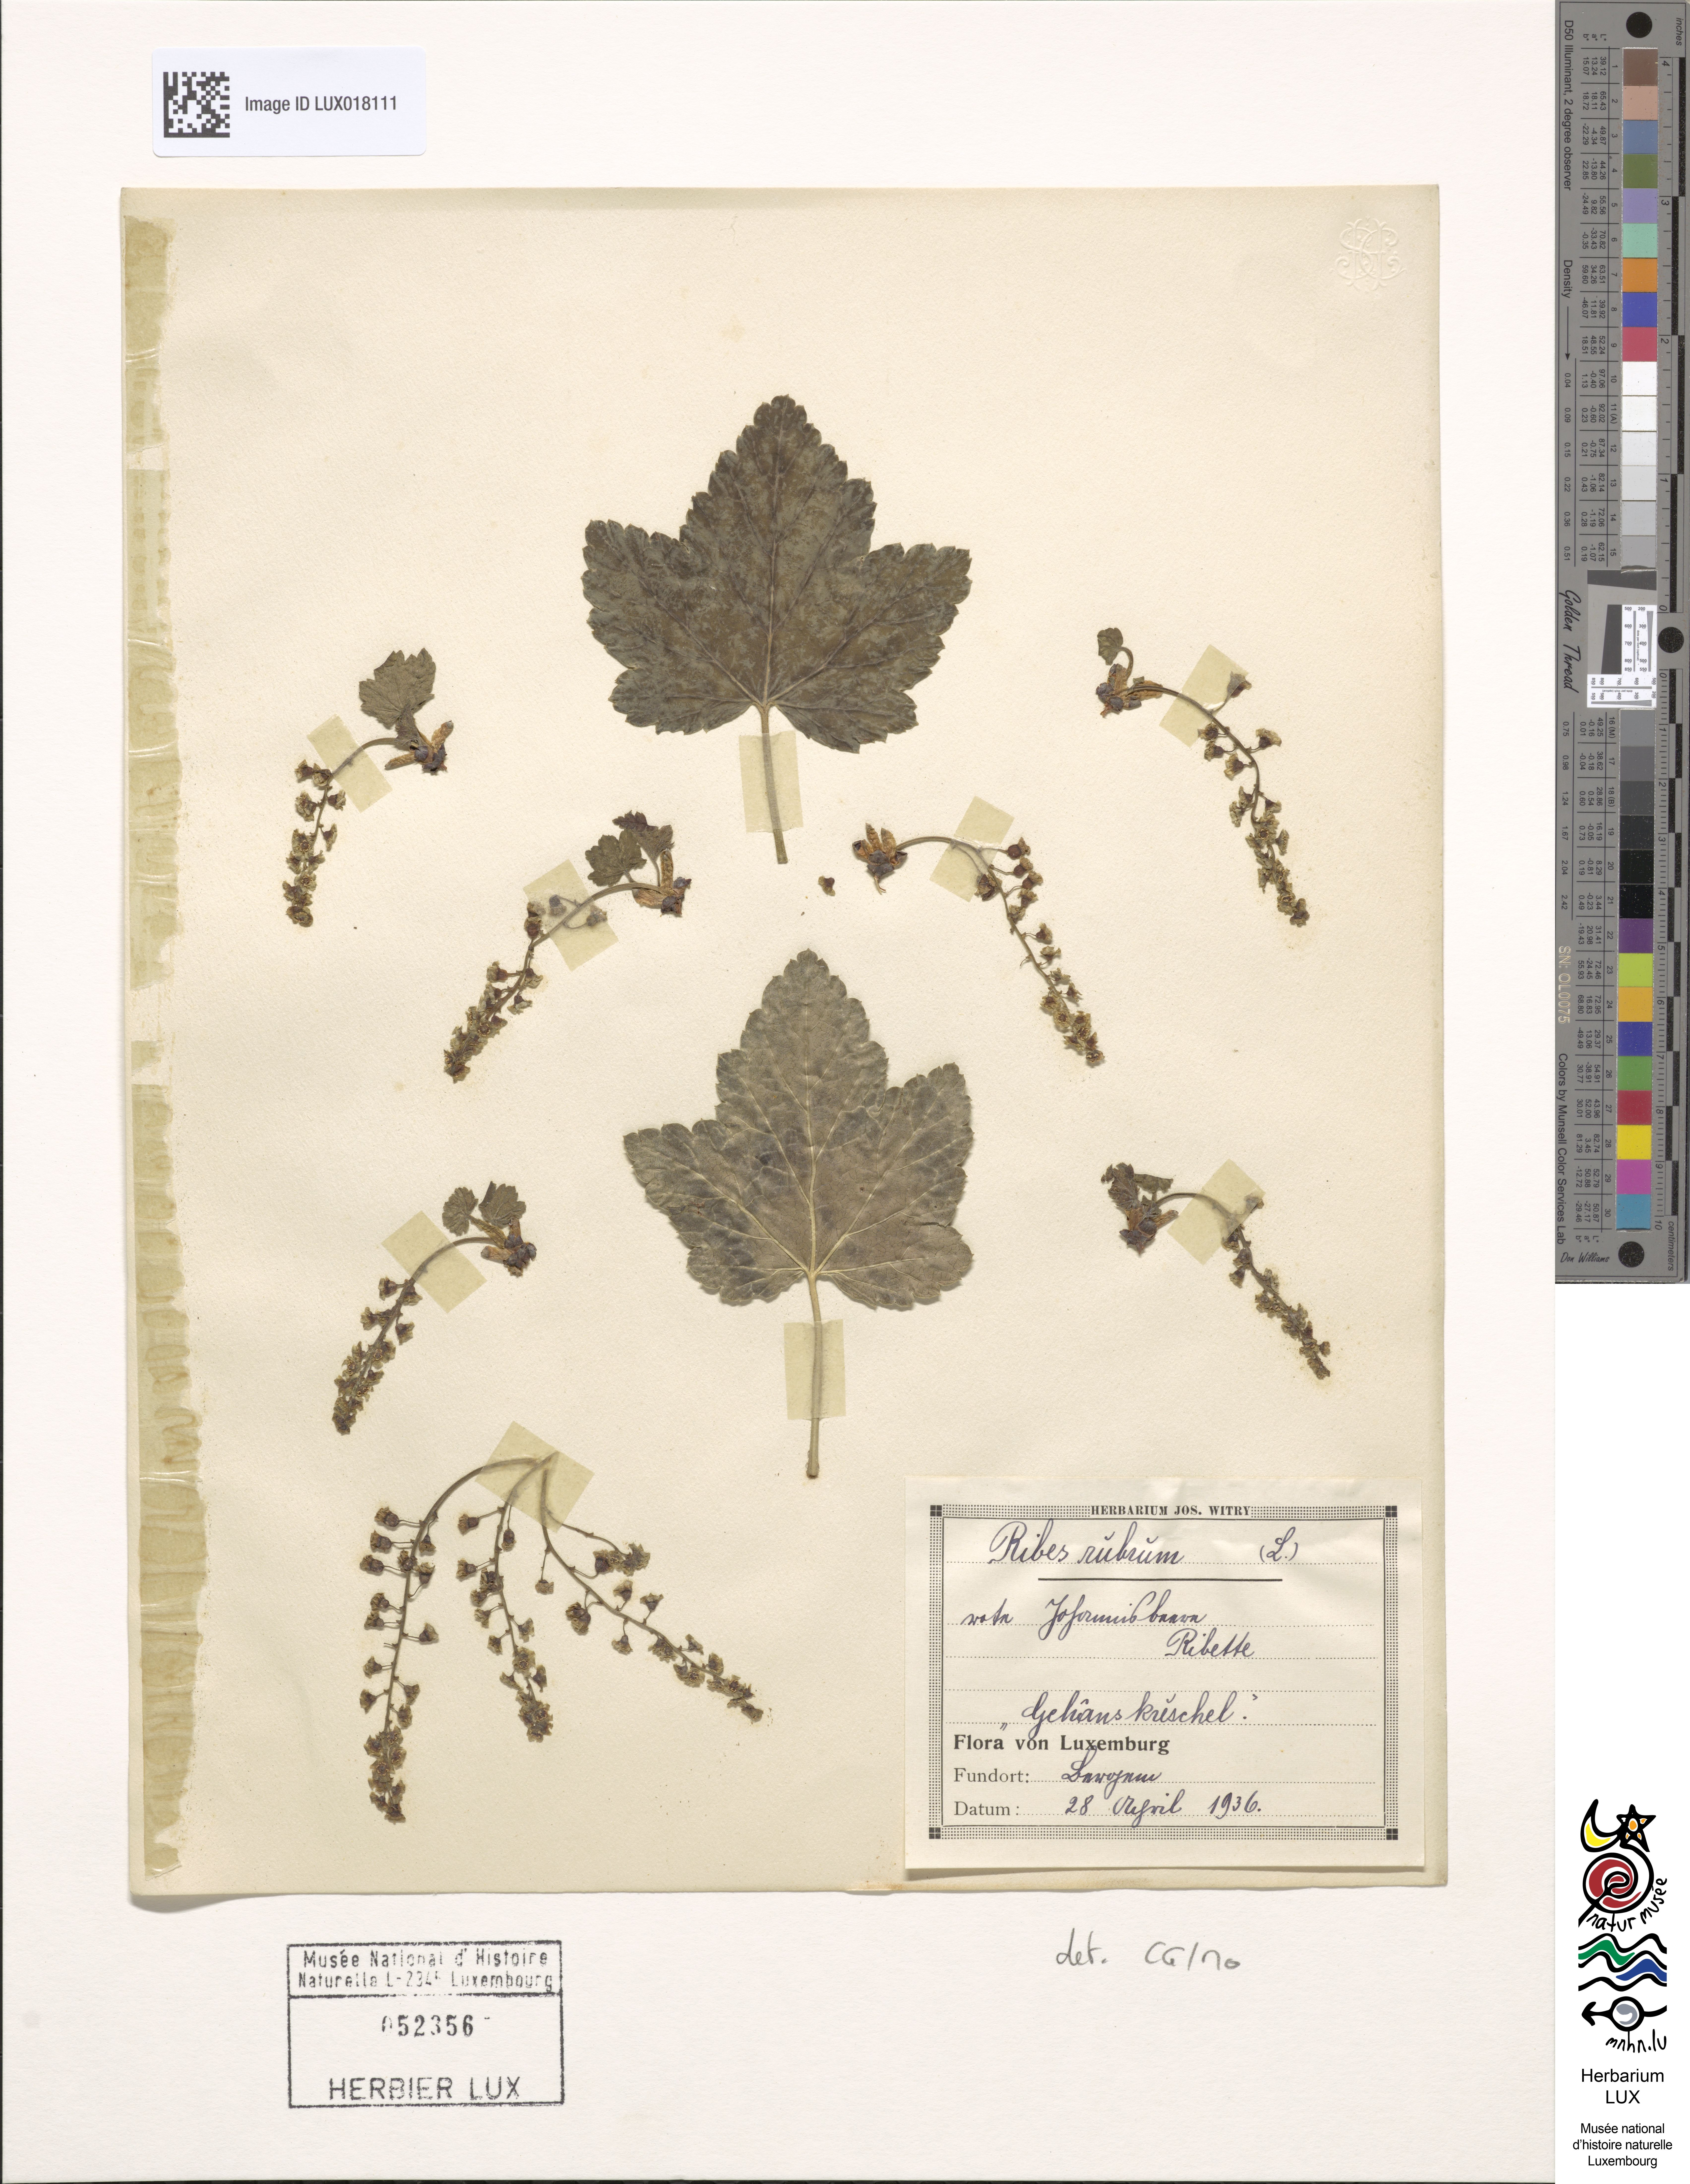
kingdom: Plantae
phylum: Tracheophyta
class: Magnoliopsida
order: Saxifragales
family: Grossulariaceae
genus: Ribes
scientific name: Ribes rubrum
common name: Red currant
